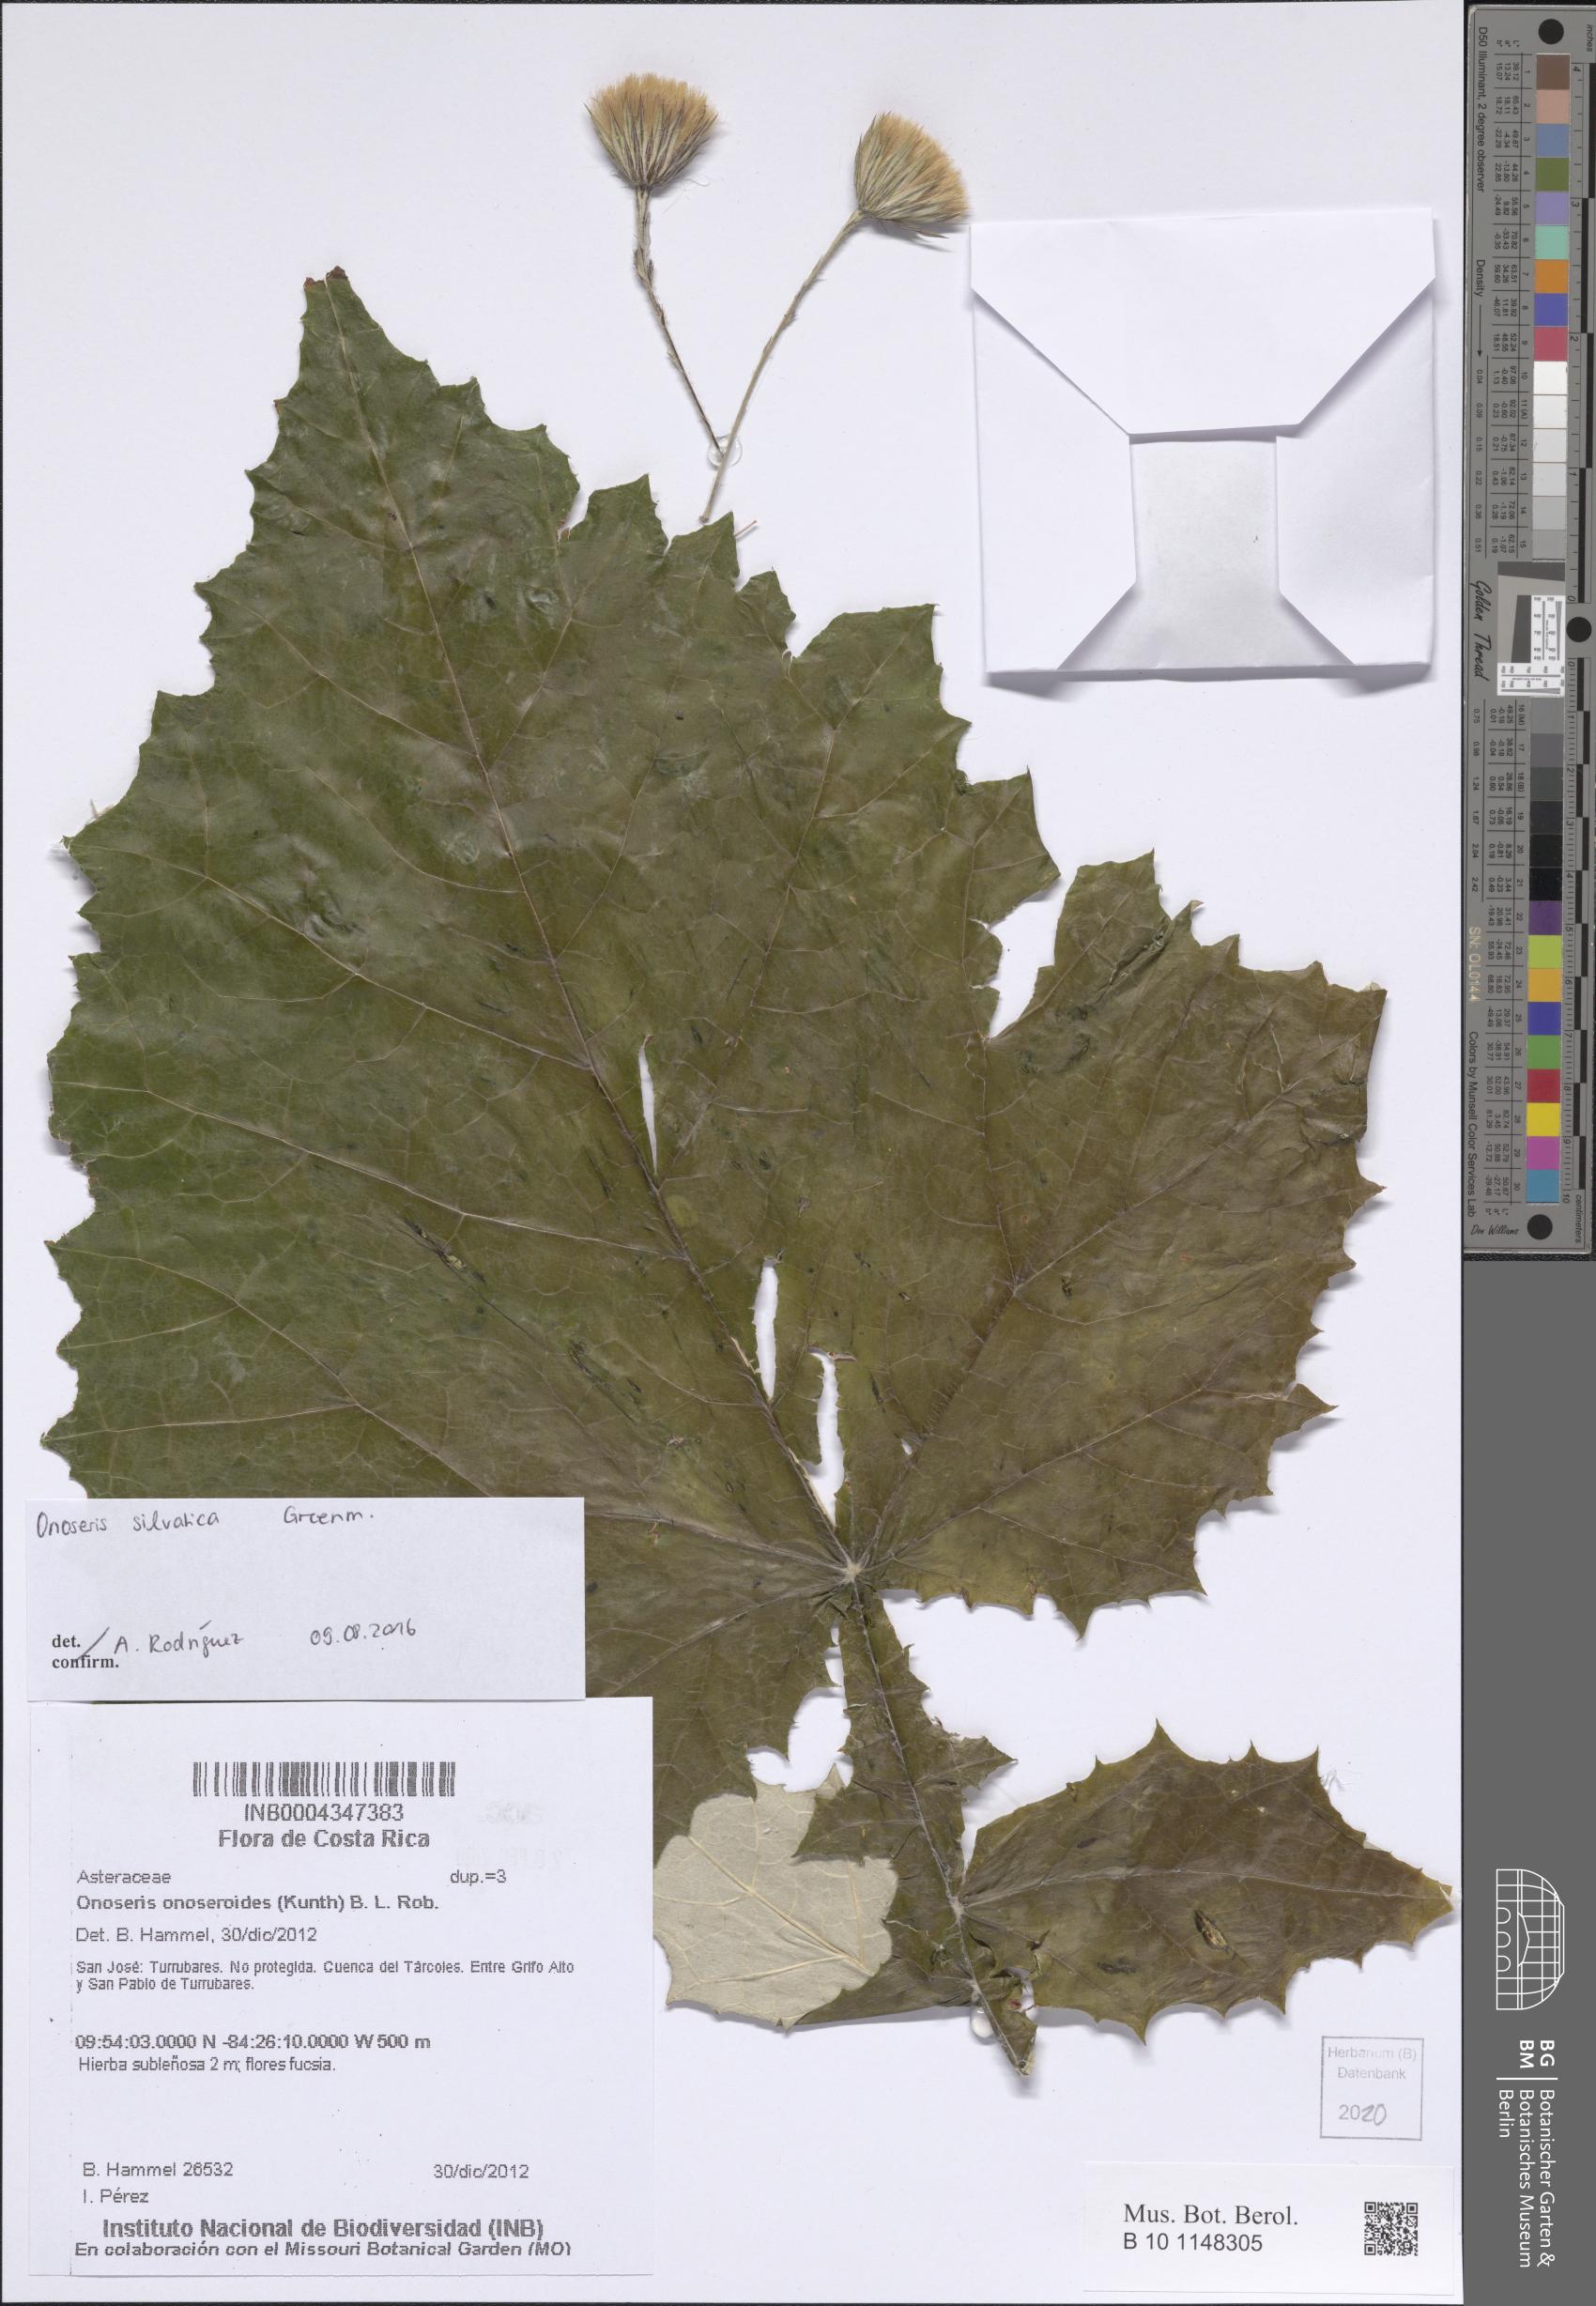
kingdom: Plantae
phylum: Tracheophyta
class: Magnoliopsida
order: Asterales
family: Asteraceae
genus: Onoseris
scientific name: Onoseris onoseroides
